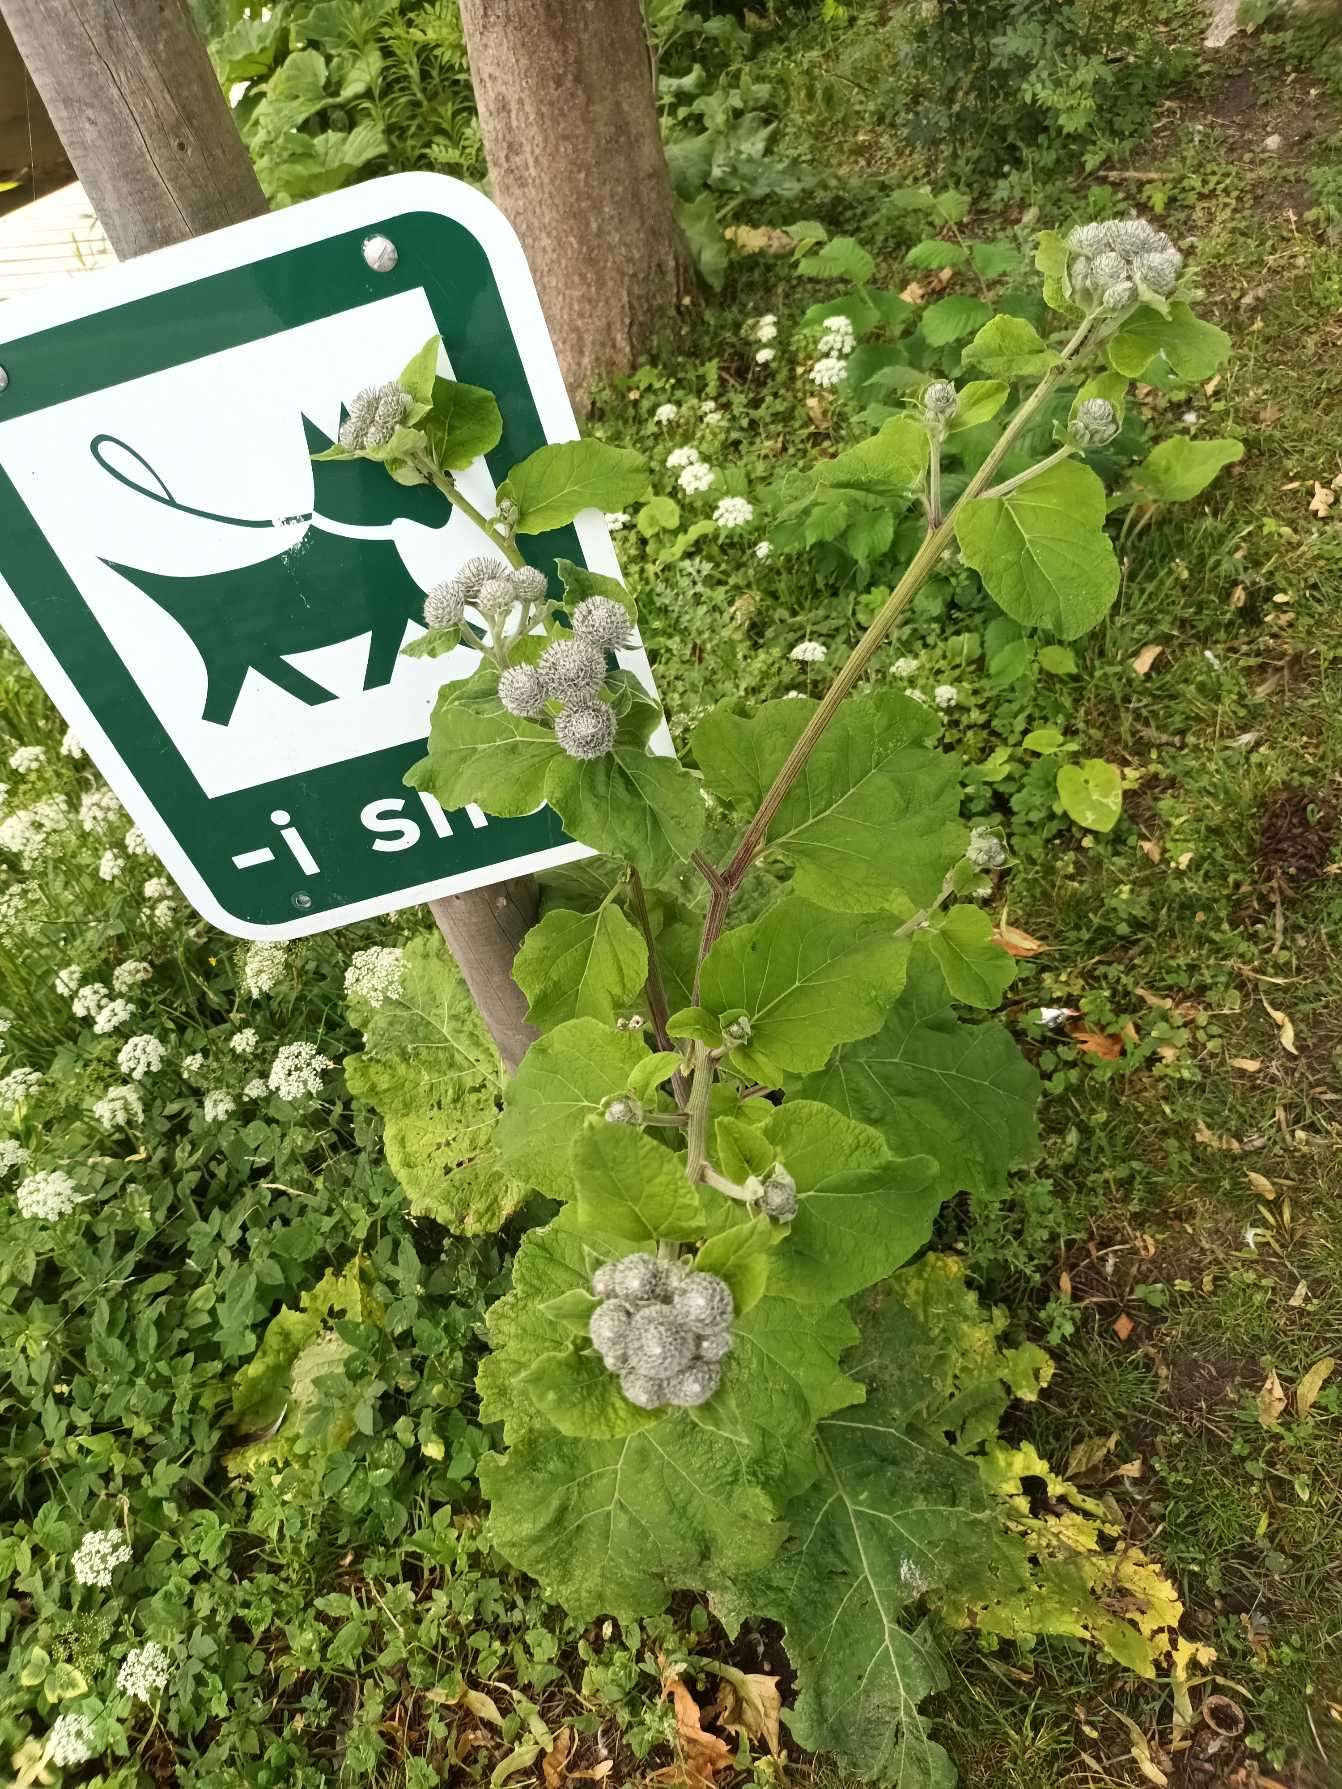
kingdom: Plantae
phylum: Tracheophyta
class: Magnoliopsida
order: Asterales
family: Asteraceae
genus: Arctium
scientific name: Arctium tomentosum
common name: Filtet burre
